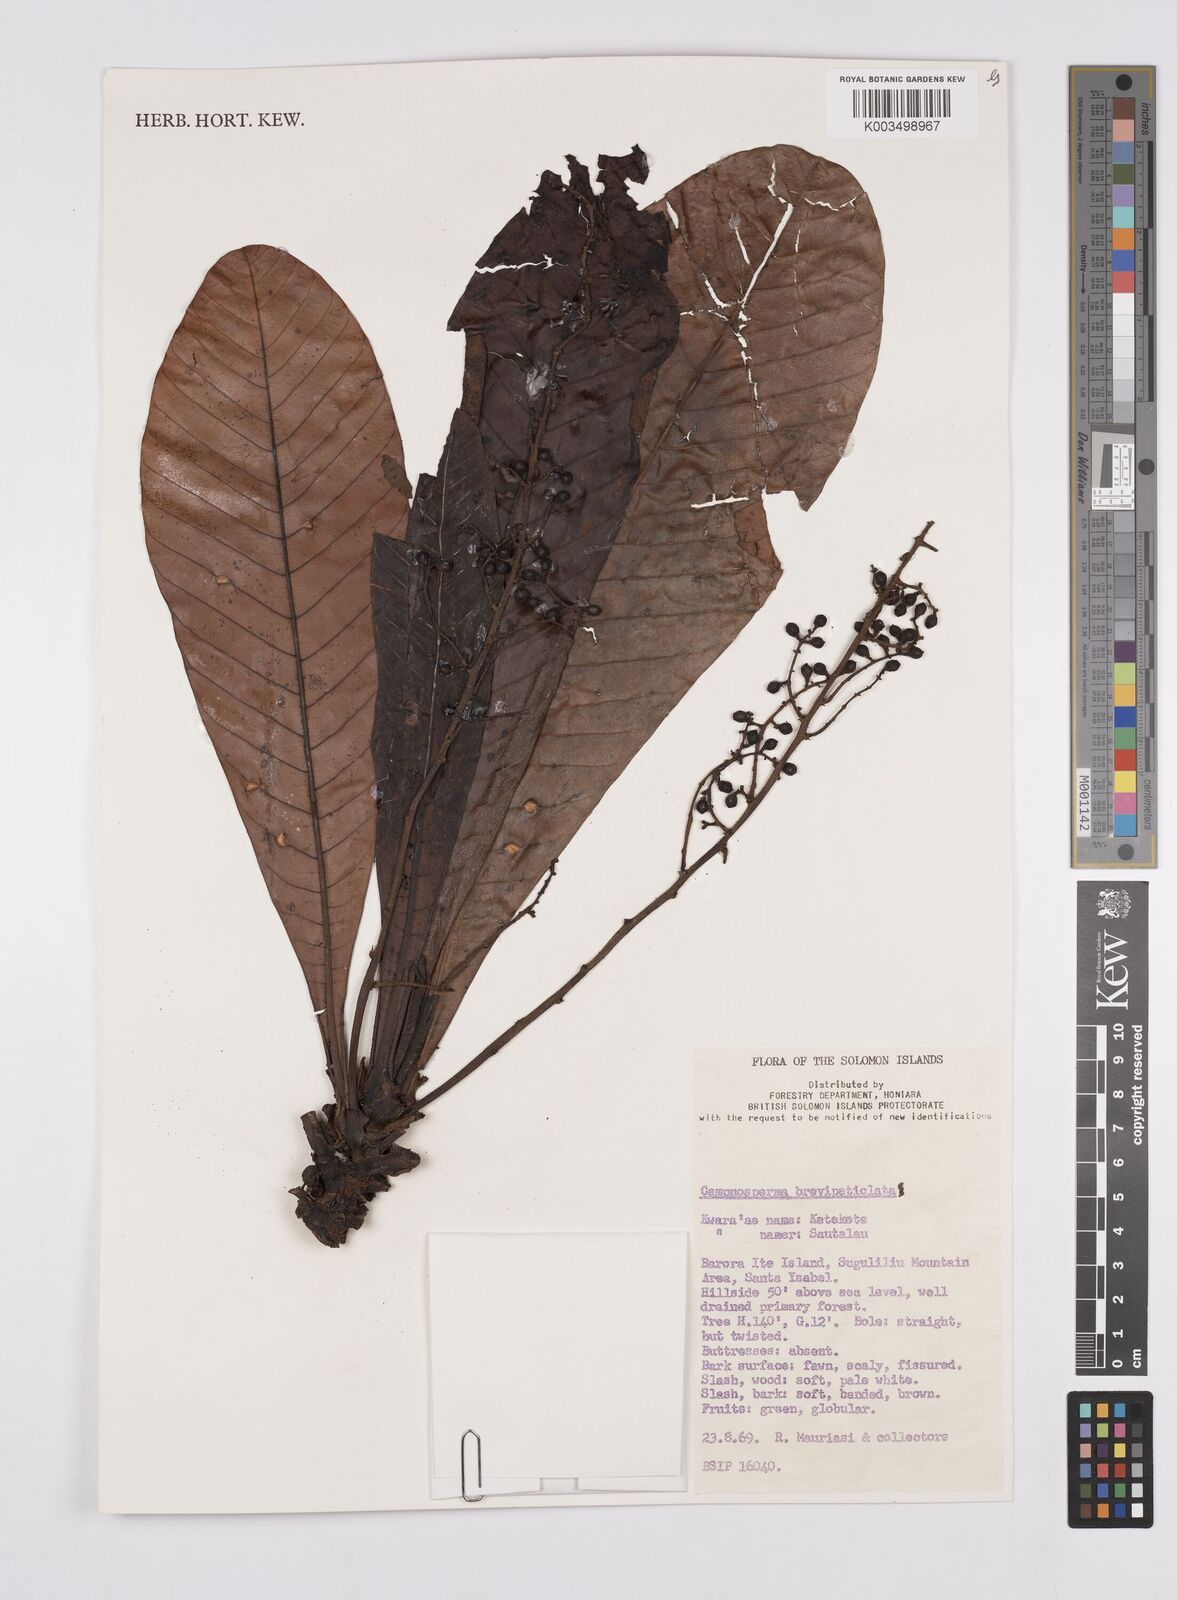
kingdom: Plantae
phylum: Tracheophyta
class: Magnoliopsida
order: Sapindales
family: Anacardiaceae
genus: Campnosperma
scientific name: Campnosperma brevipetiolatum
